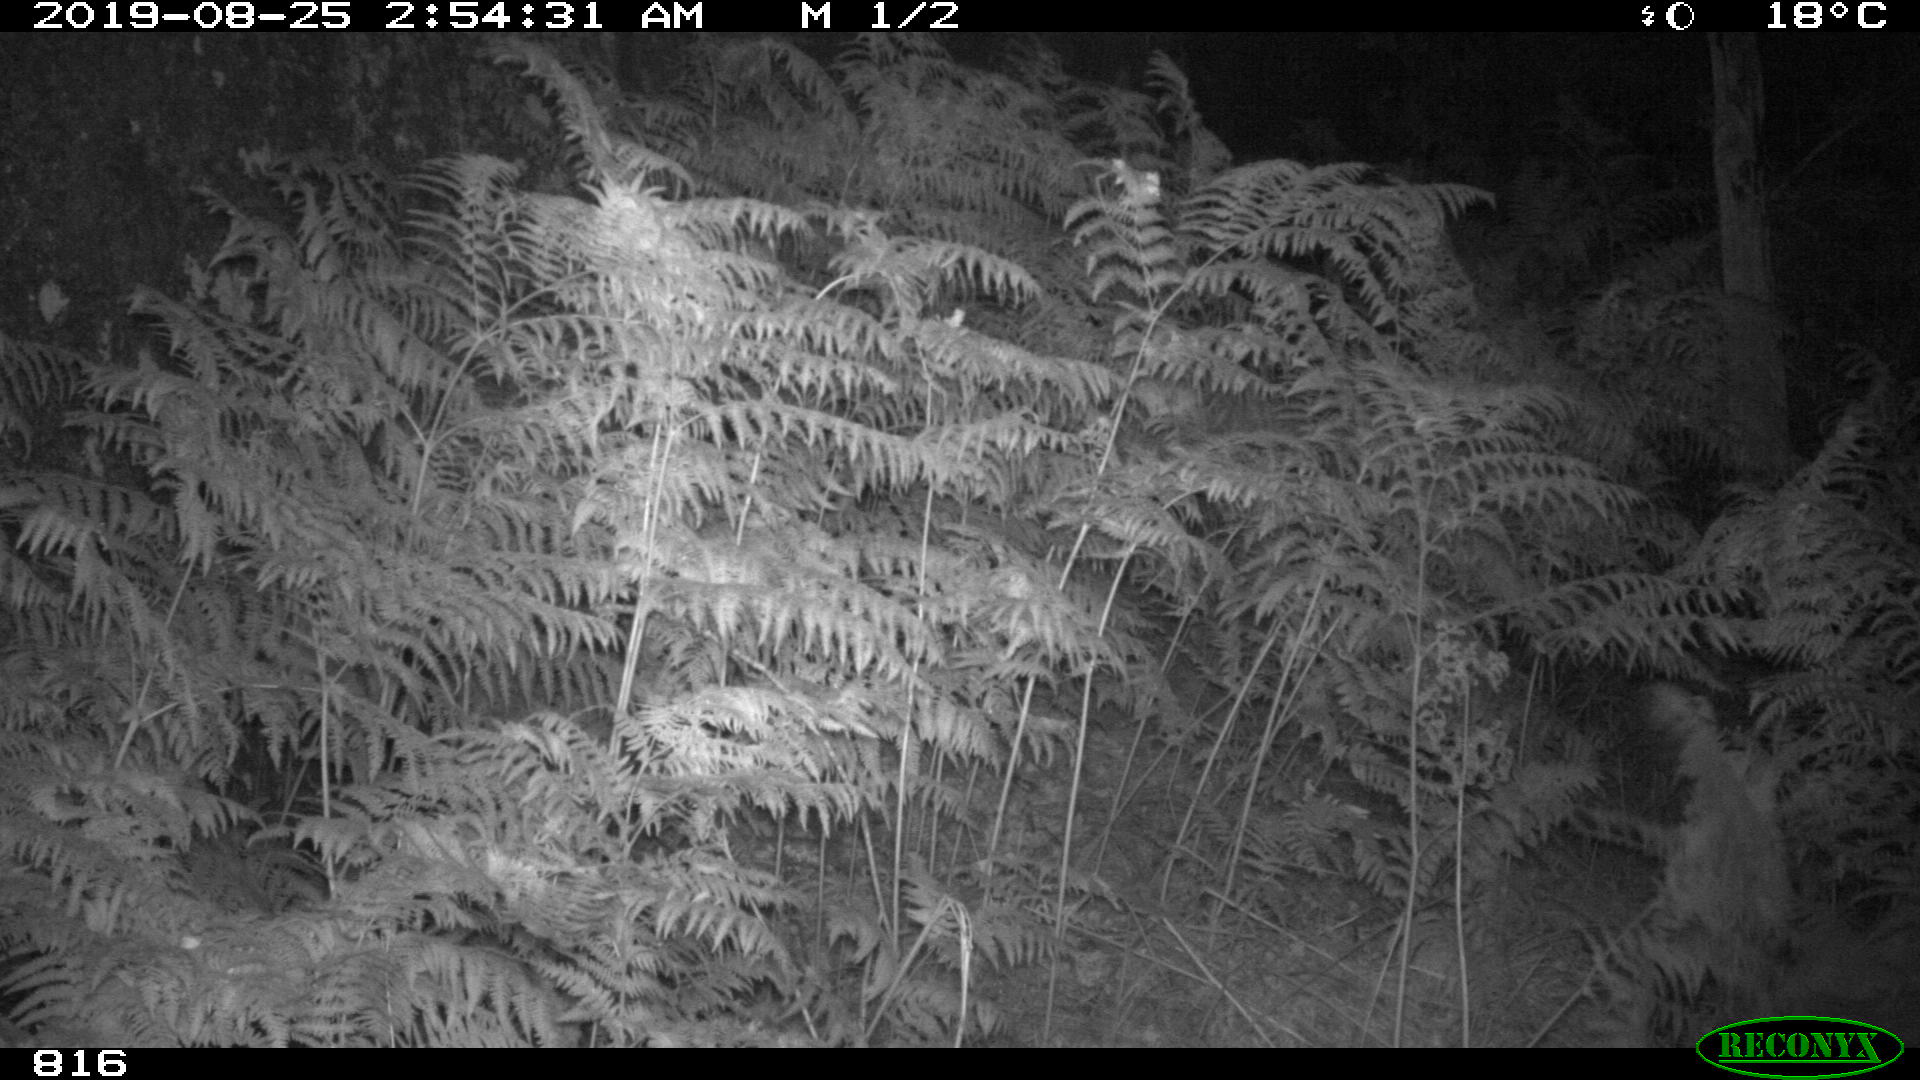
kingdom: Animalia
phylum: Chordata
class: Mammalia
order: Perissodactyla
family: Equidae
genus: Equus
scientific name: Equus caballus
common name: Horse
